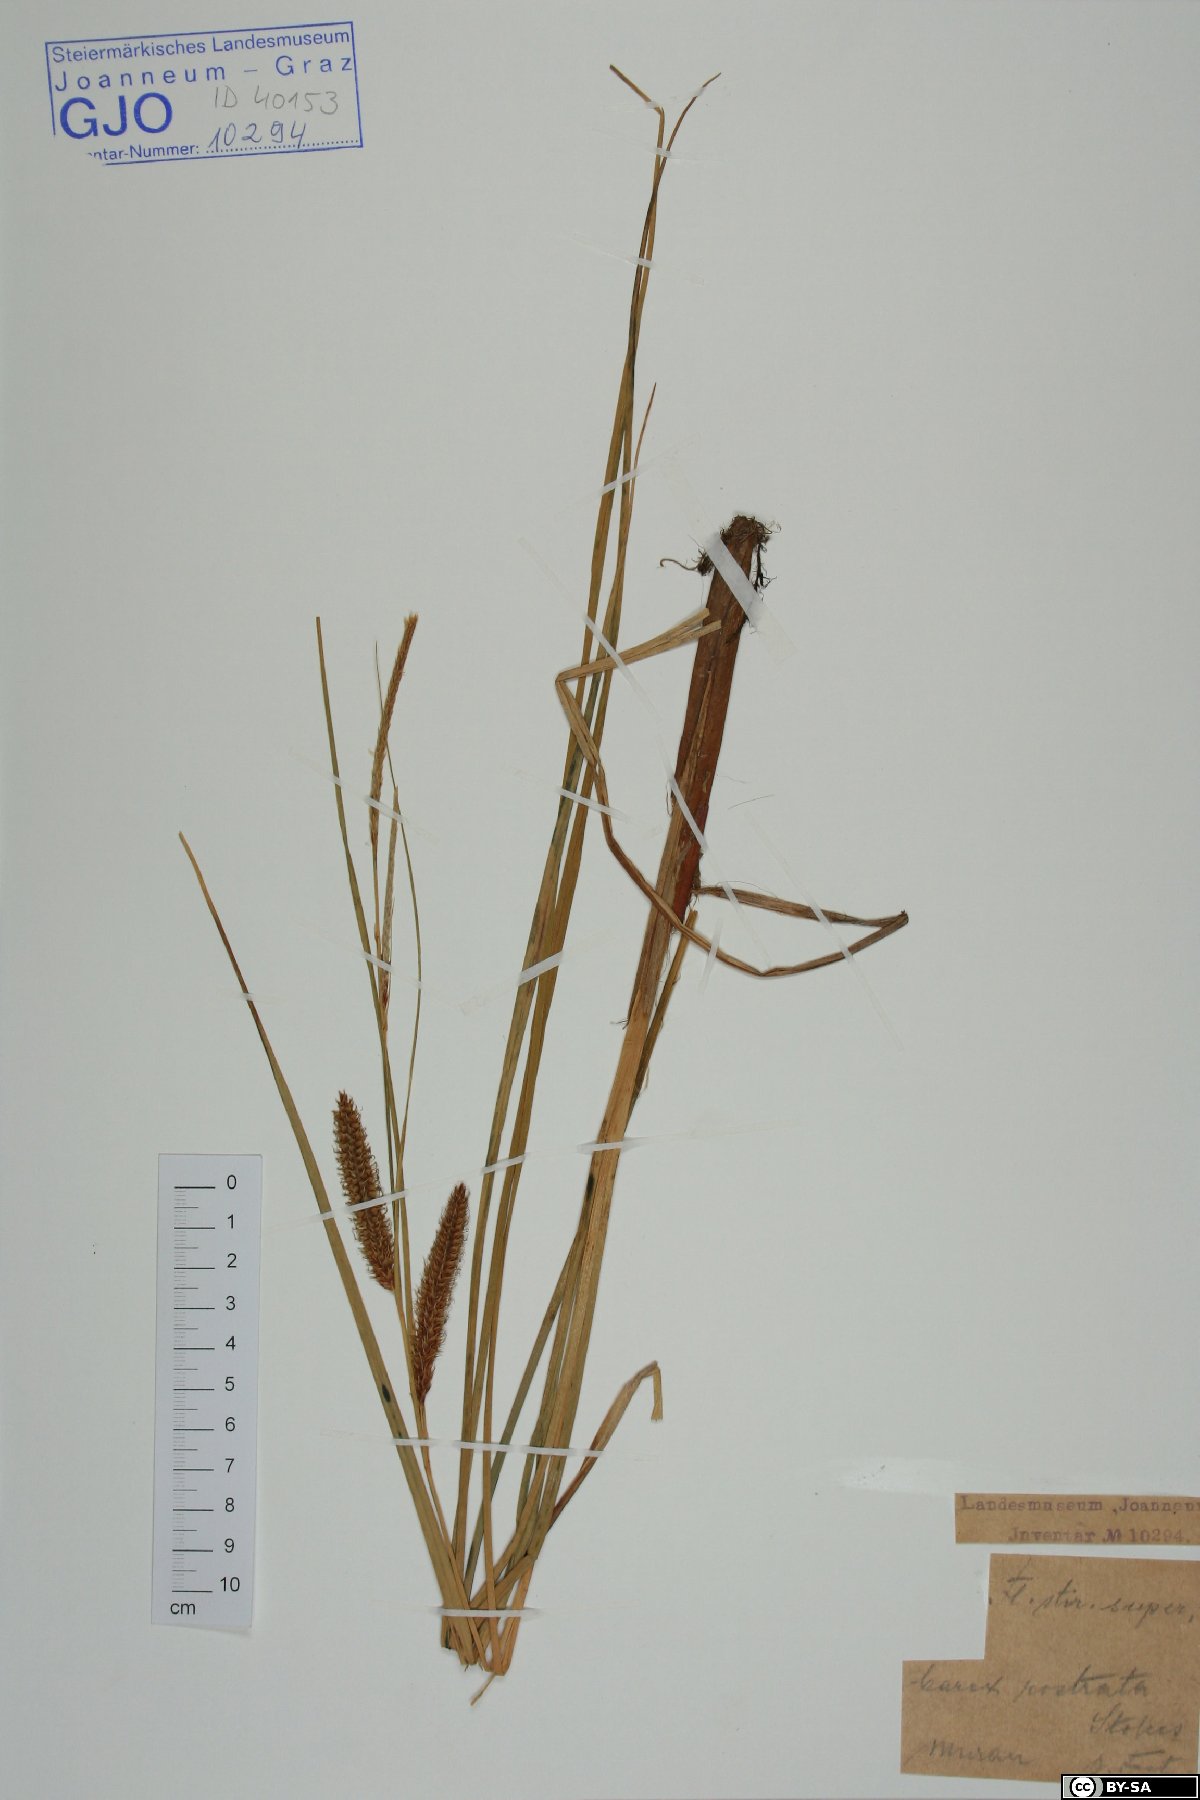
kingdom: Plantae
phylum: Tracheophyta
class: Liliopsida
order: Poales
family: Cyperaceae
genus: Carex
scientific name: Carex rostrata
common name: Bottle sedge
